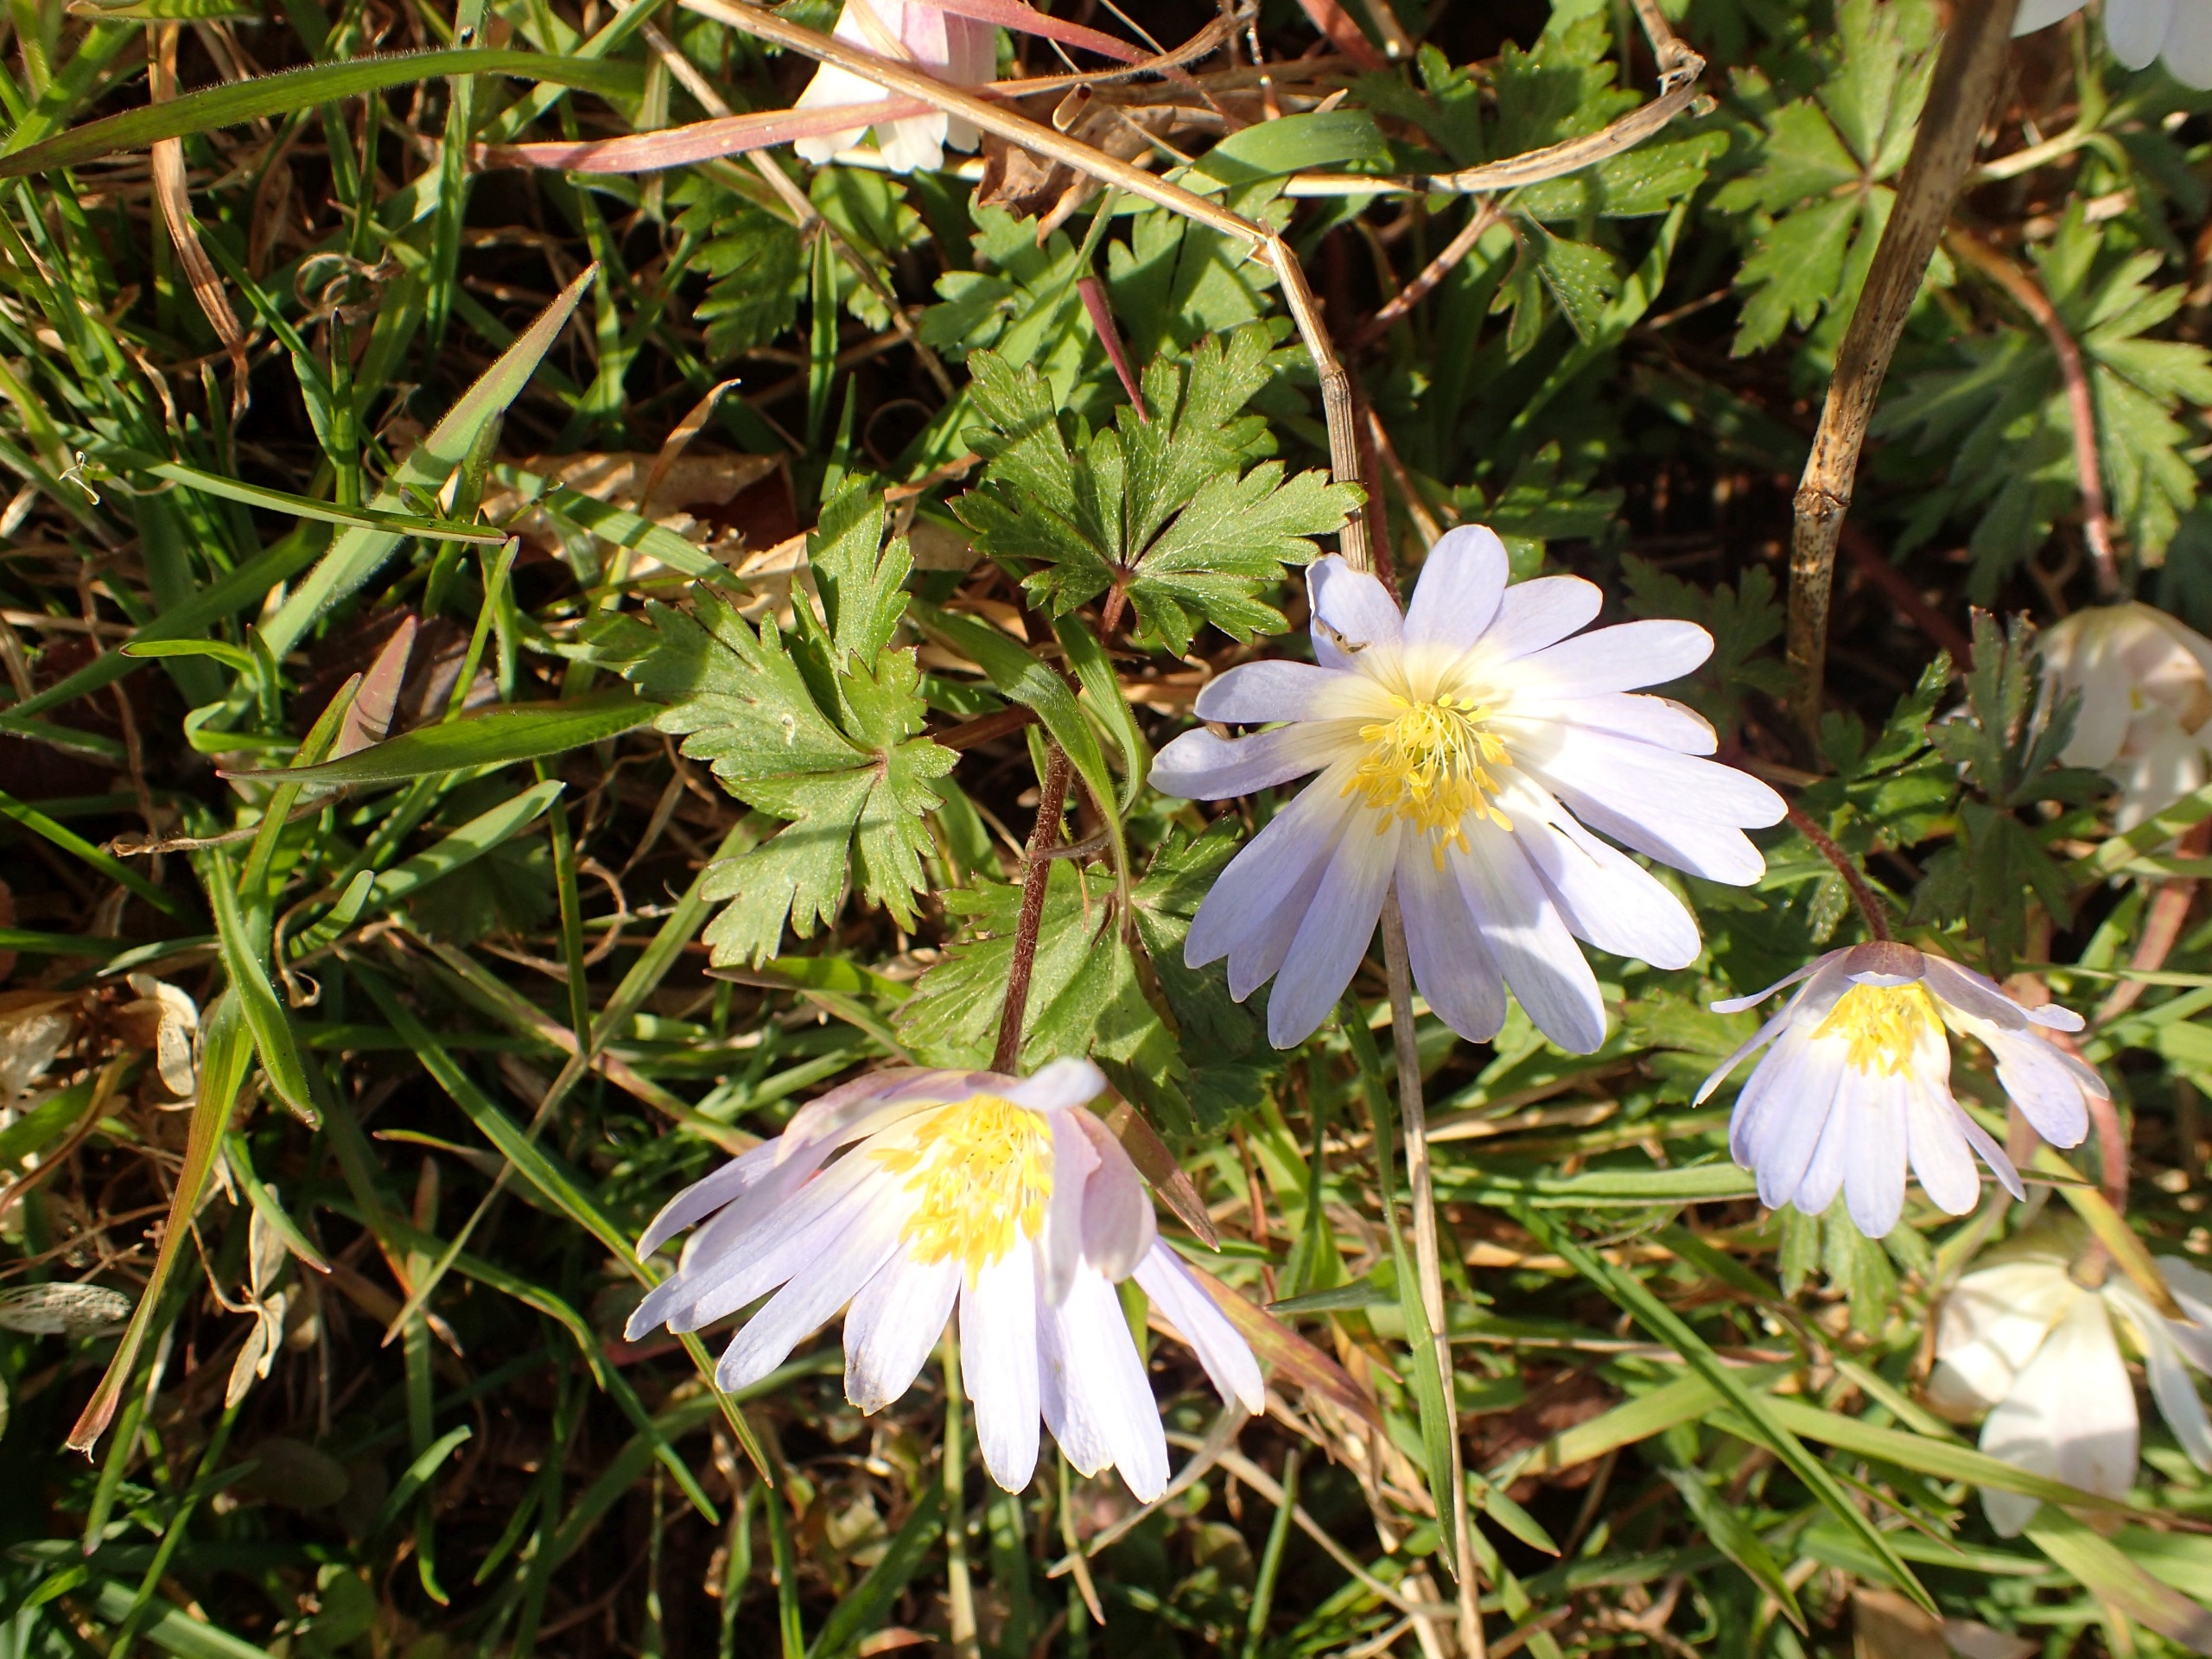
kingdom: Plantae
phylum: Tracheophyta
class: Magnoliopsida
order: Ranunculales
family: Ranunculaceae
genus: Anemone
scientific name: Anemone blanda
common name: Balkan-anemone
